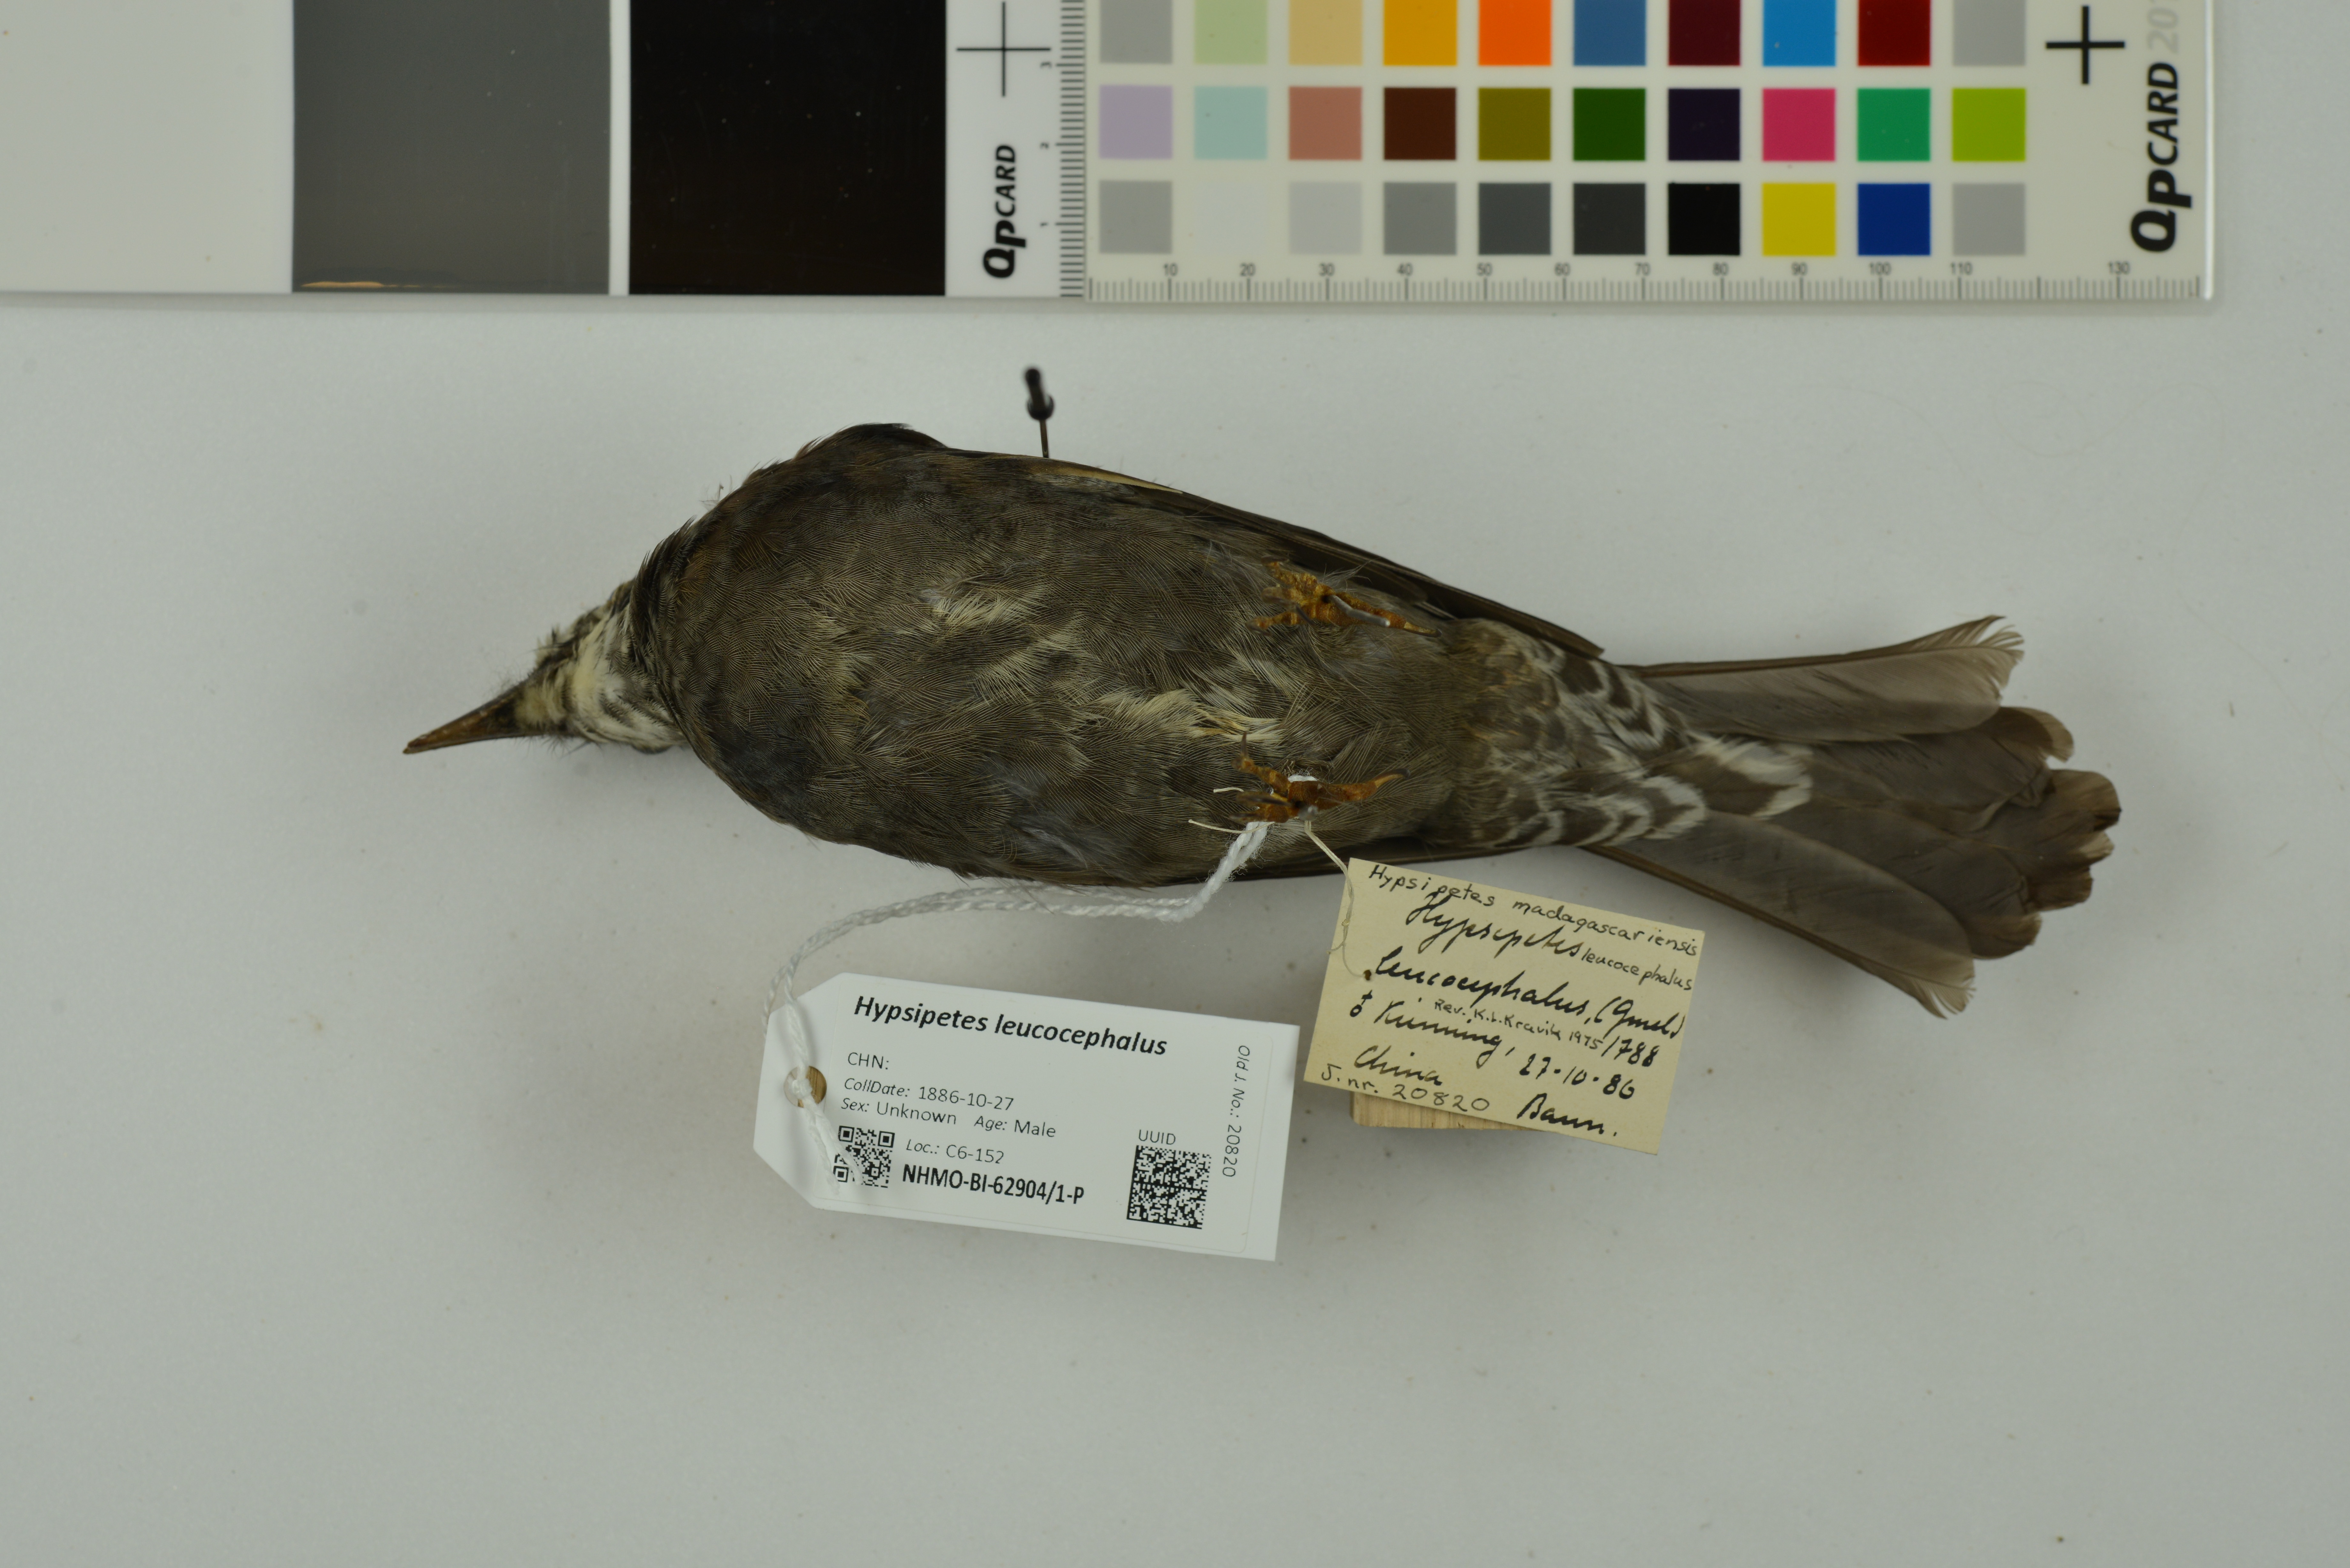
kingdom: Animalia
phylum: Chordata
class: Aves
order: Passeriformes
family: Pycnonotidae
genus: Hypsipetes
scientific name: Hypsipetes leucocephalus
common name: Black bulbul
